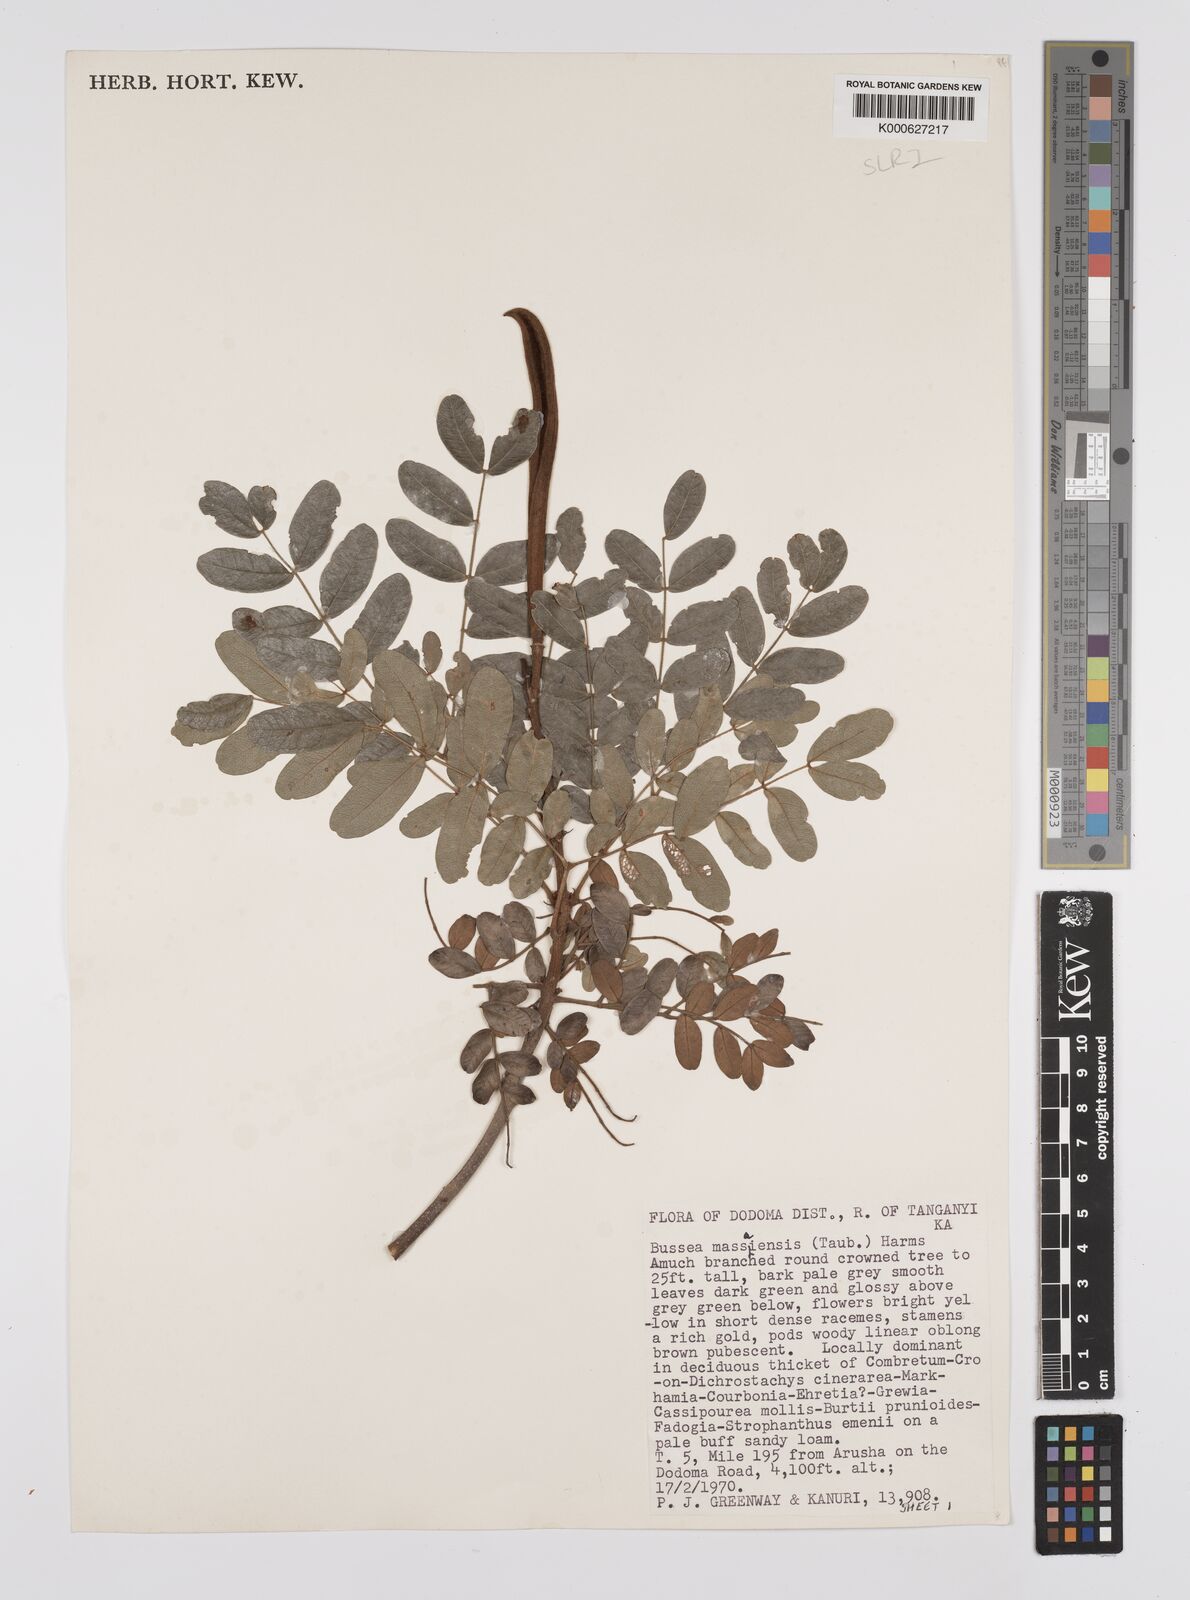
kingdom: Plantae
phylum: Tracheophyta
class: Magnoliopsida
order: Fabales
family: Fabaceae
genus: Bussea
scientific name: Bussea massaiensis
